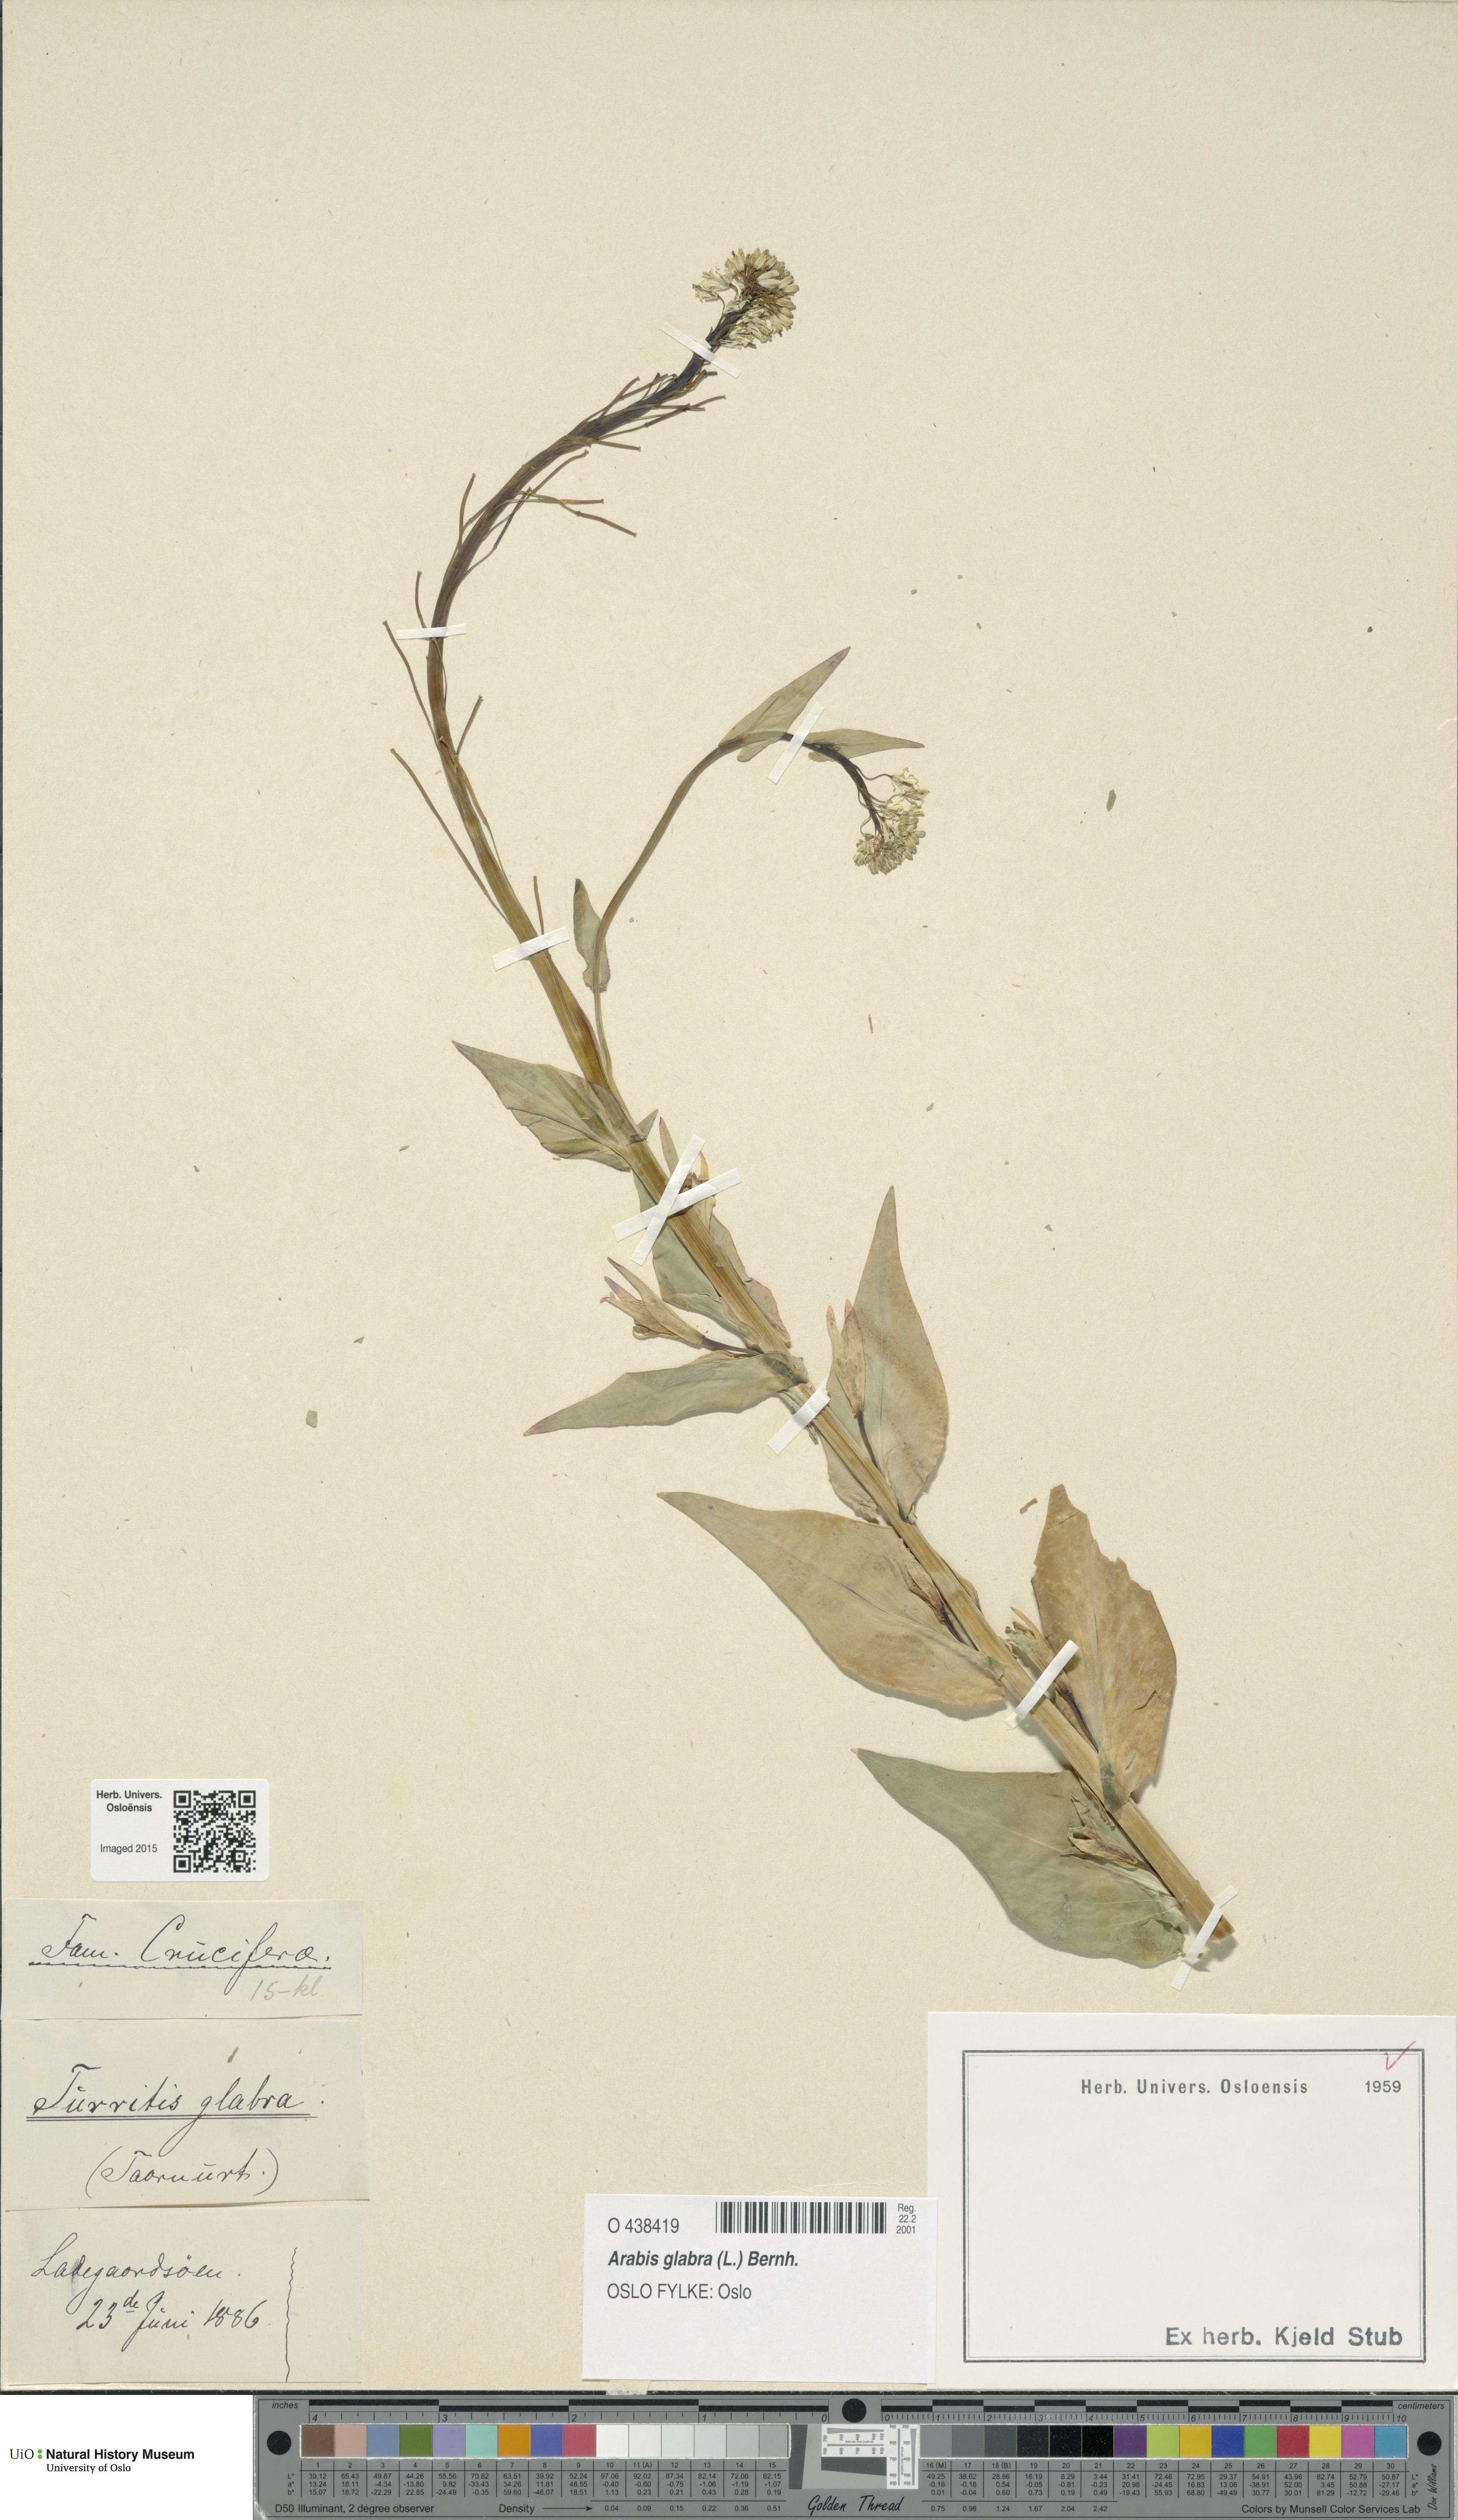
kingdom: Plantae
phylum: Tracheophyta
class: Magnoliopsida
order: Brassicales
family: Brassicaceae
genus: Turritis
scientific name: Turritis glabra
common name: Tower rockcress
